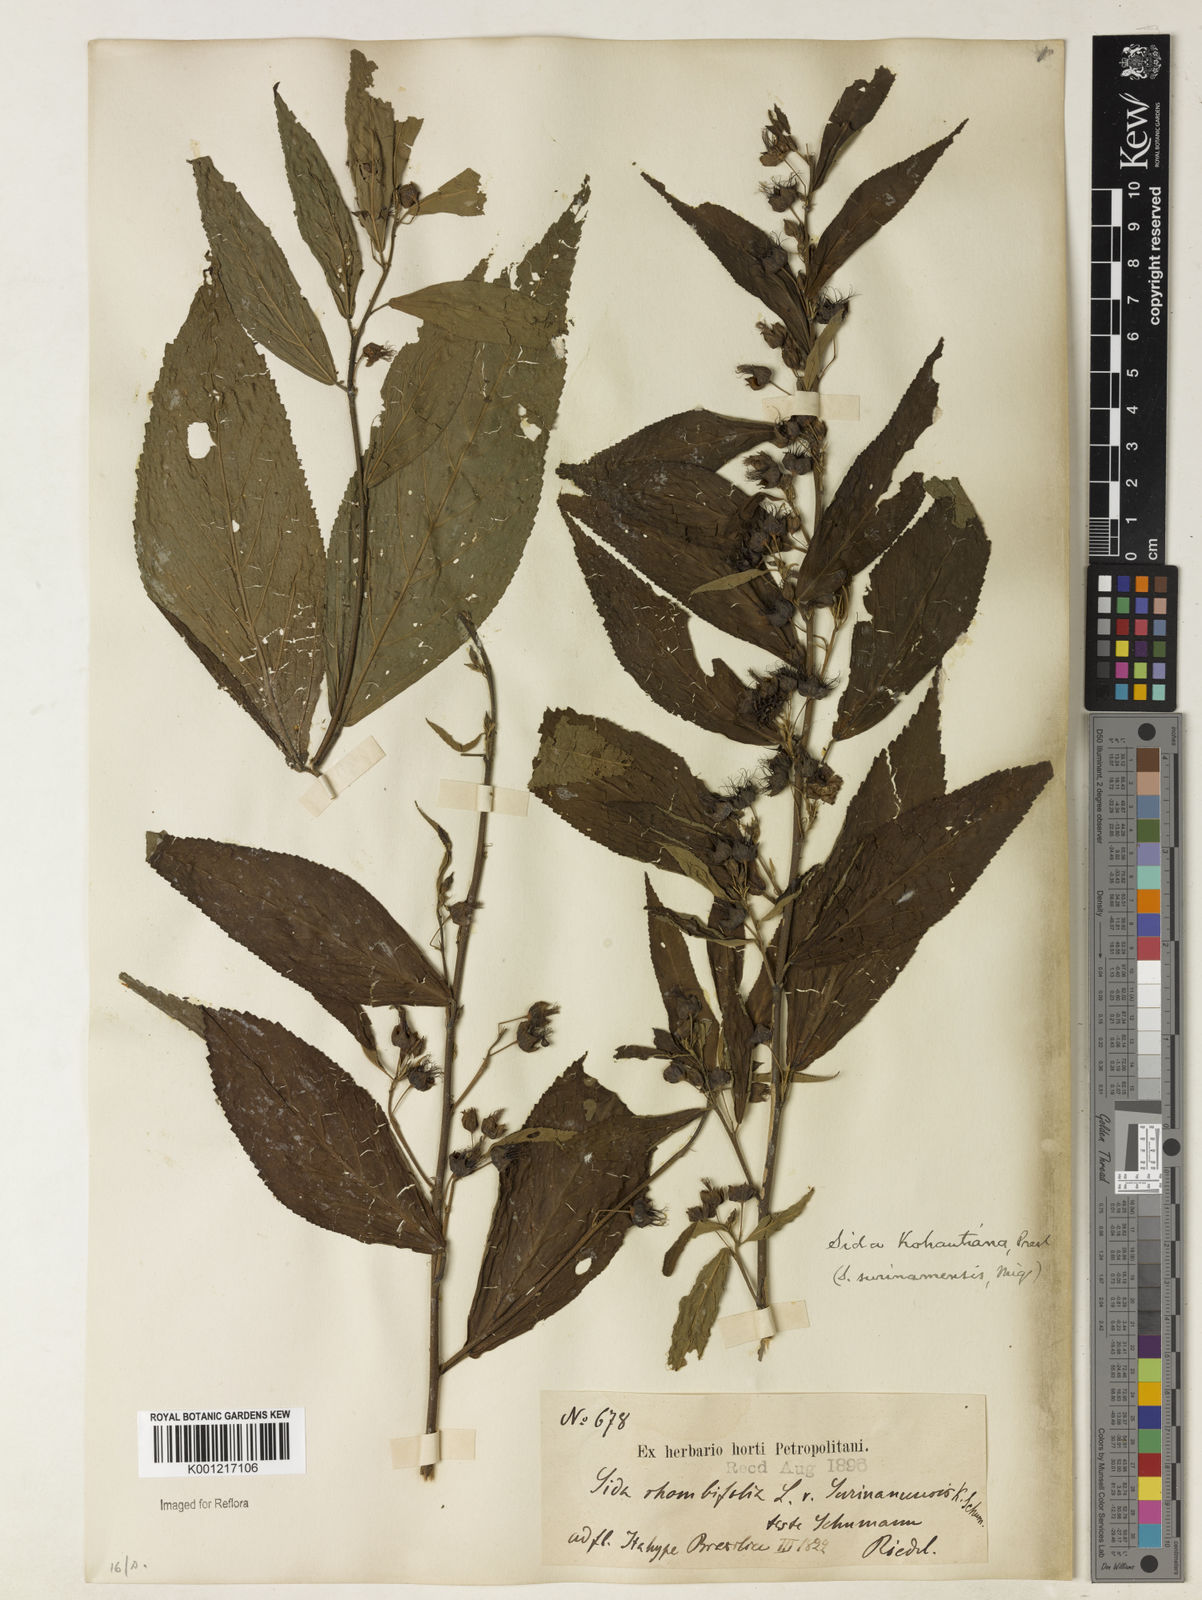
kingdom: Plantae
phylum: Tracheophyta
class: Magnoliopsida
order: Malvales
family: Malvaceae
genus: Sida
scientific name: Sida
